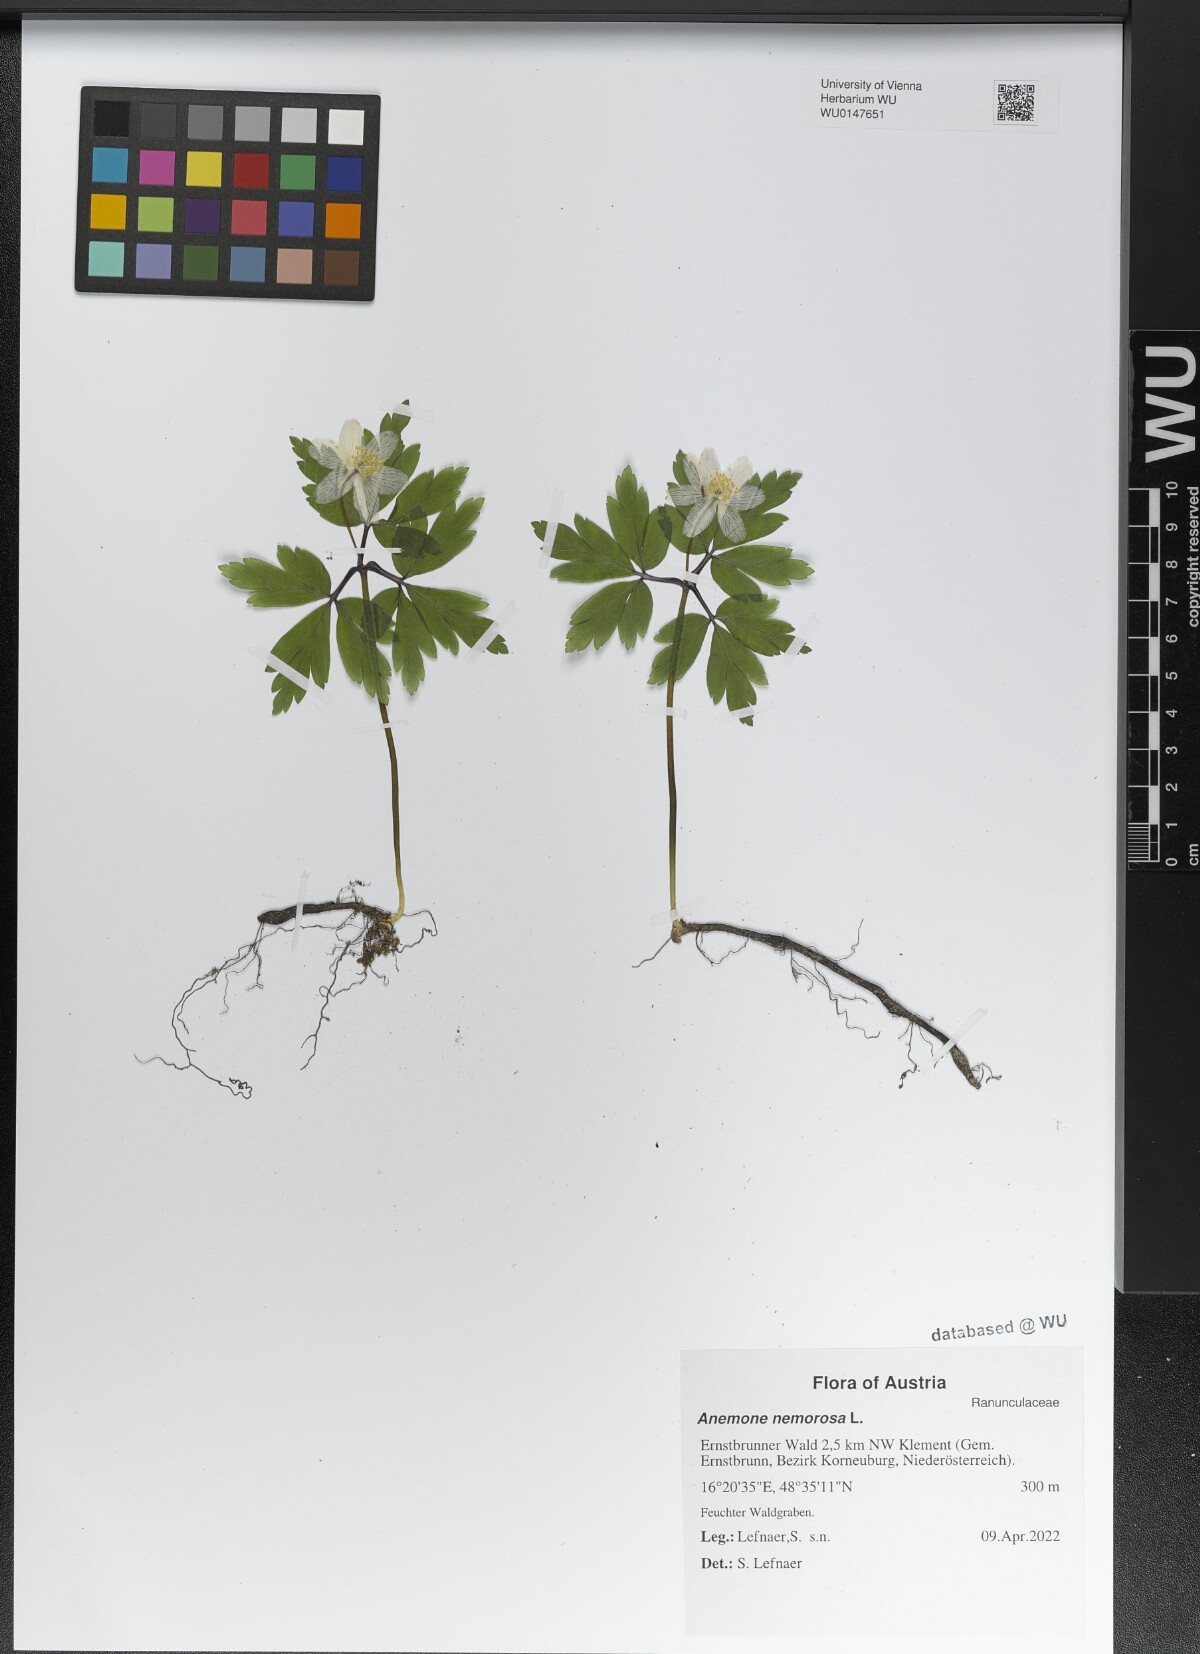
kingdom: Plantae
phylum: Tracheophyta
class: Magnoliopsida
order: Ranunculales
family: Ranunculaceae
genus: Anemone
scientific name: Anemone nemorosa
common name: Wood anemone
